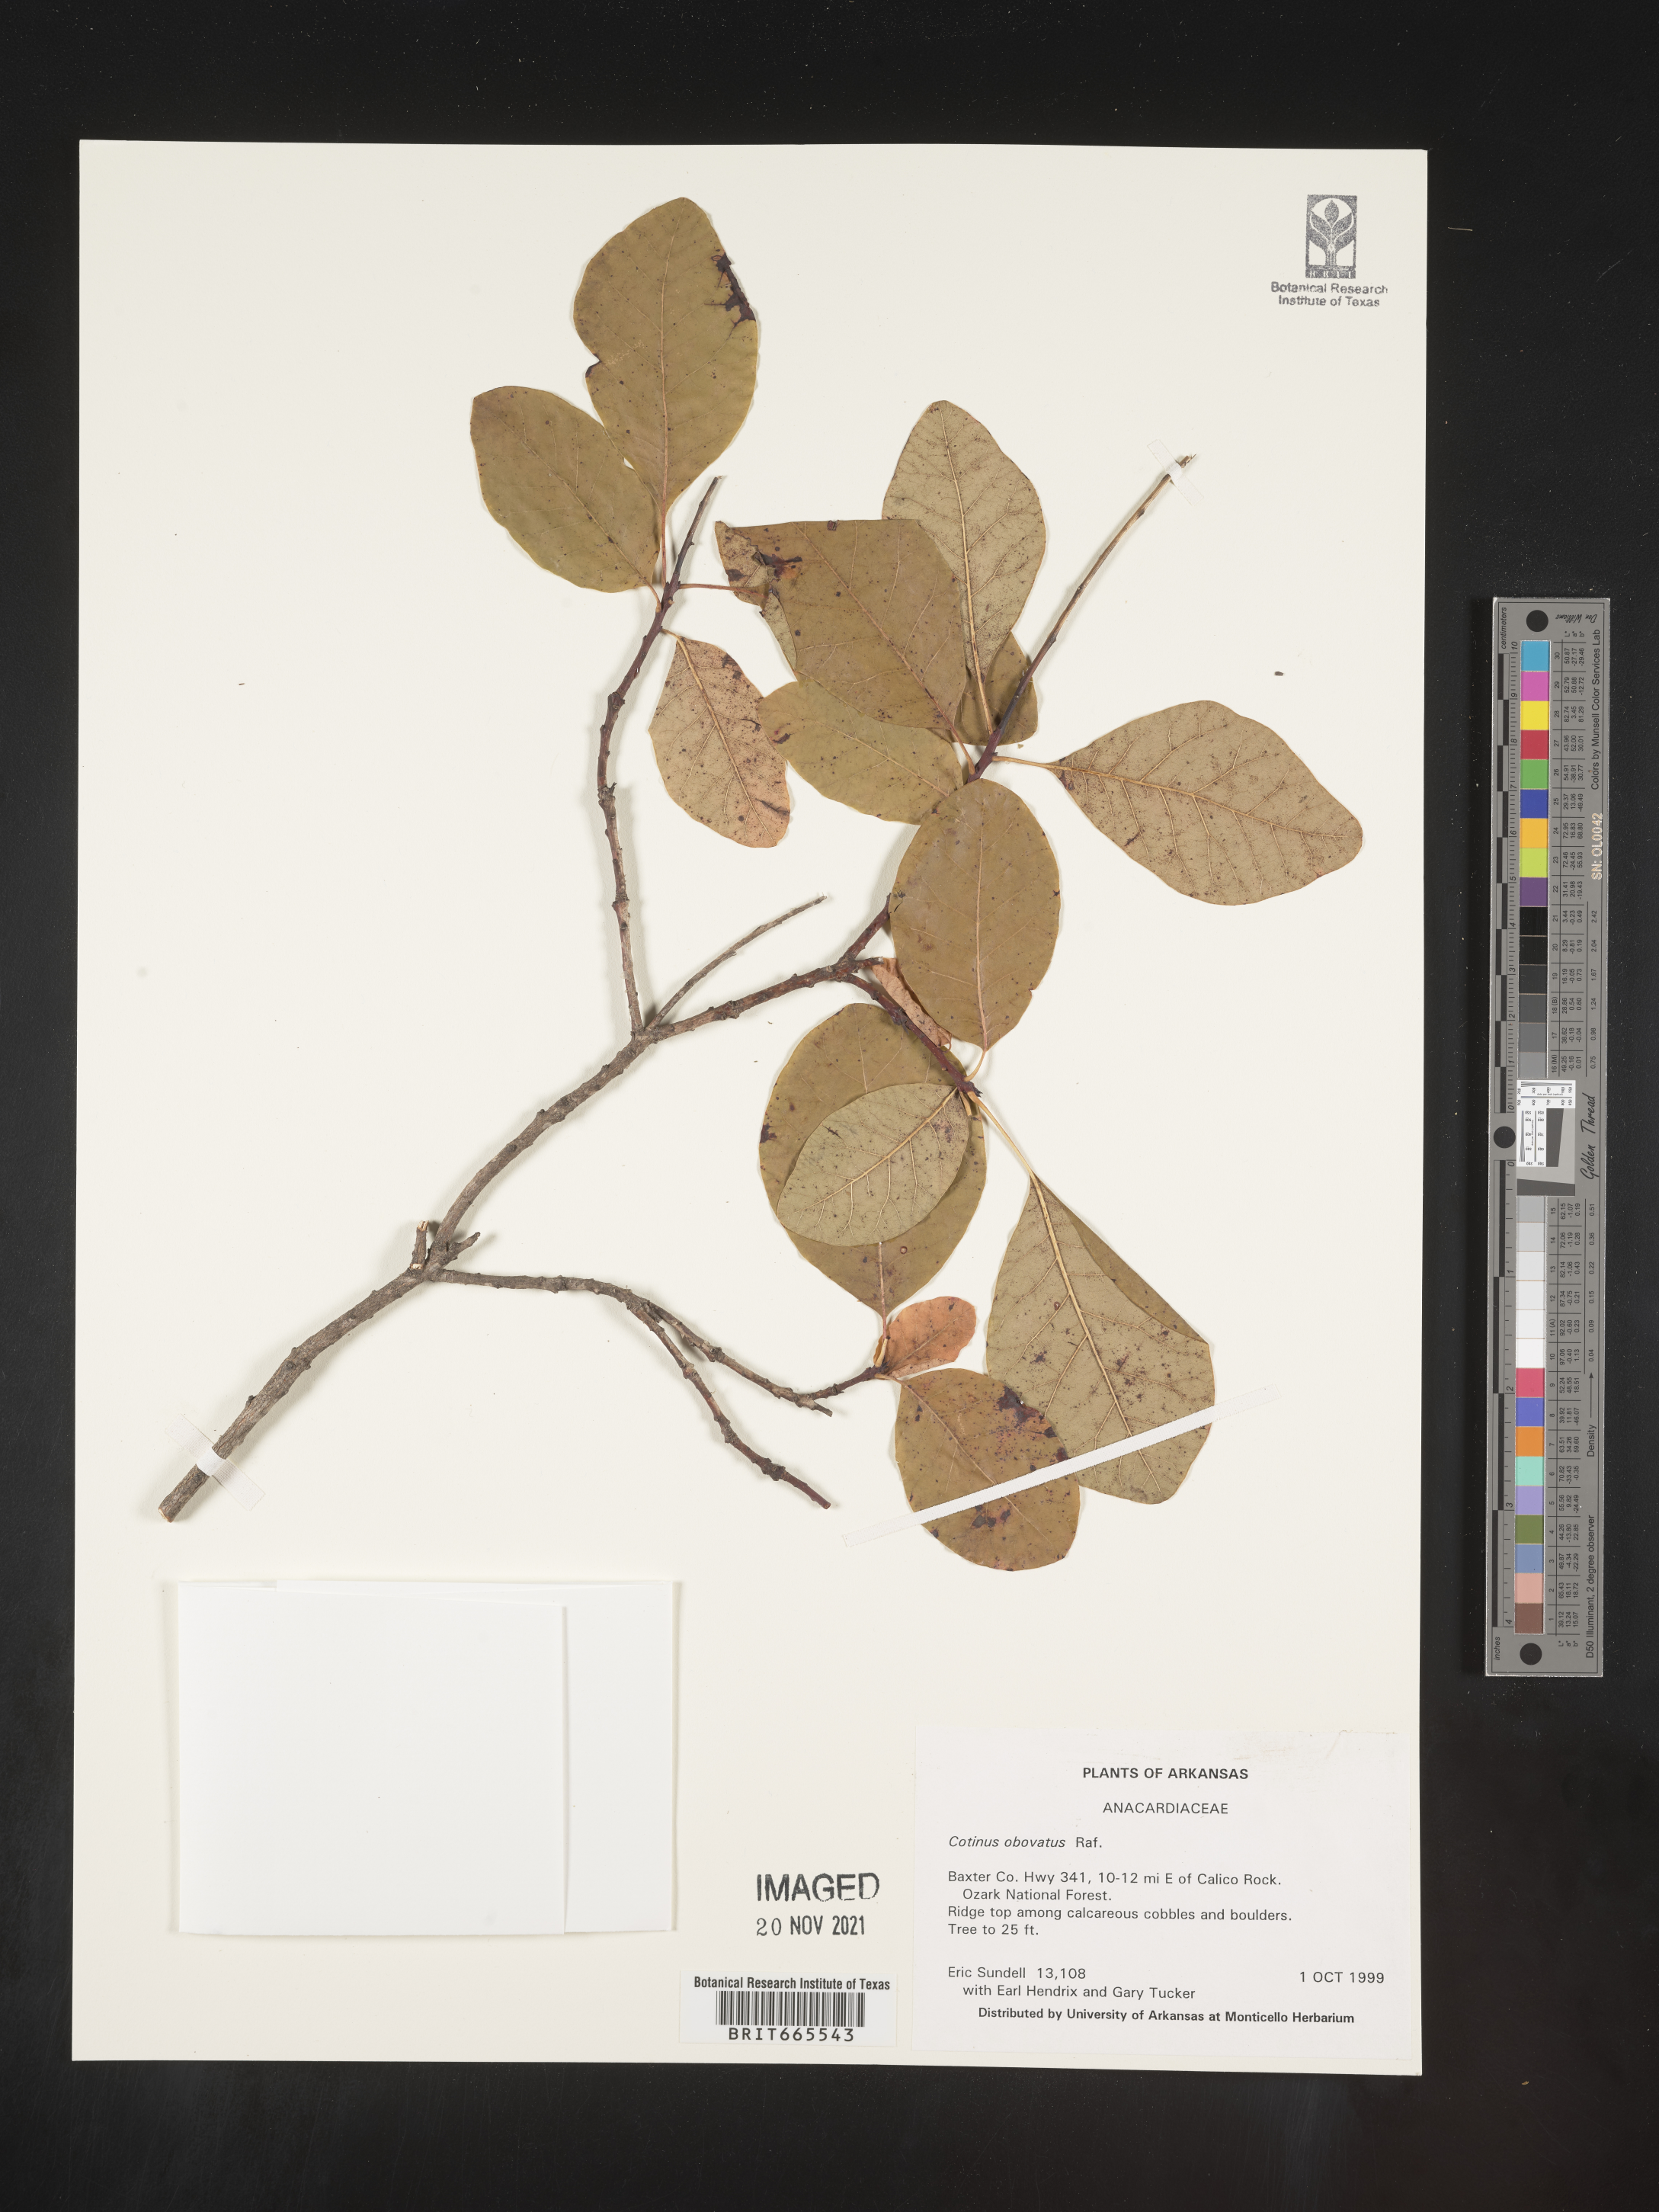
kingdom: Plantae
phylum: Tracheophyta
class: Magnoliopsida
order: Sapindales
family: Anacardiaceae
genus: Cotinus
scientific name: Cotinus obovatus
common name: Chittamwood
